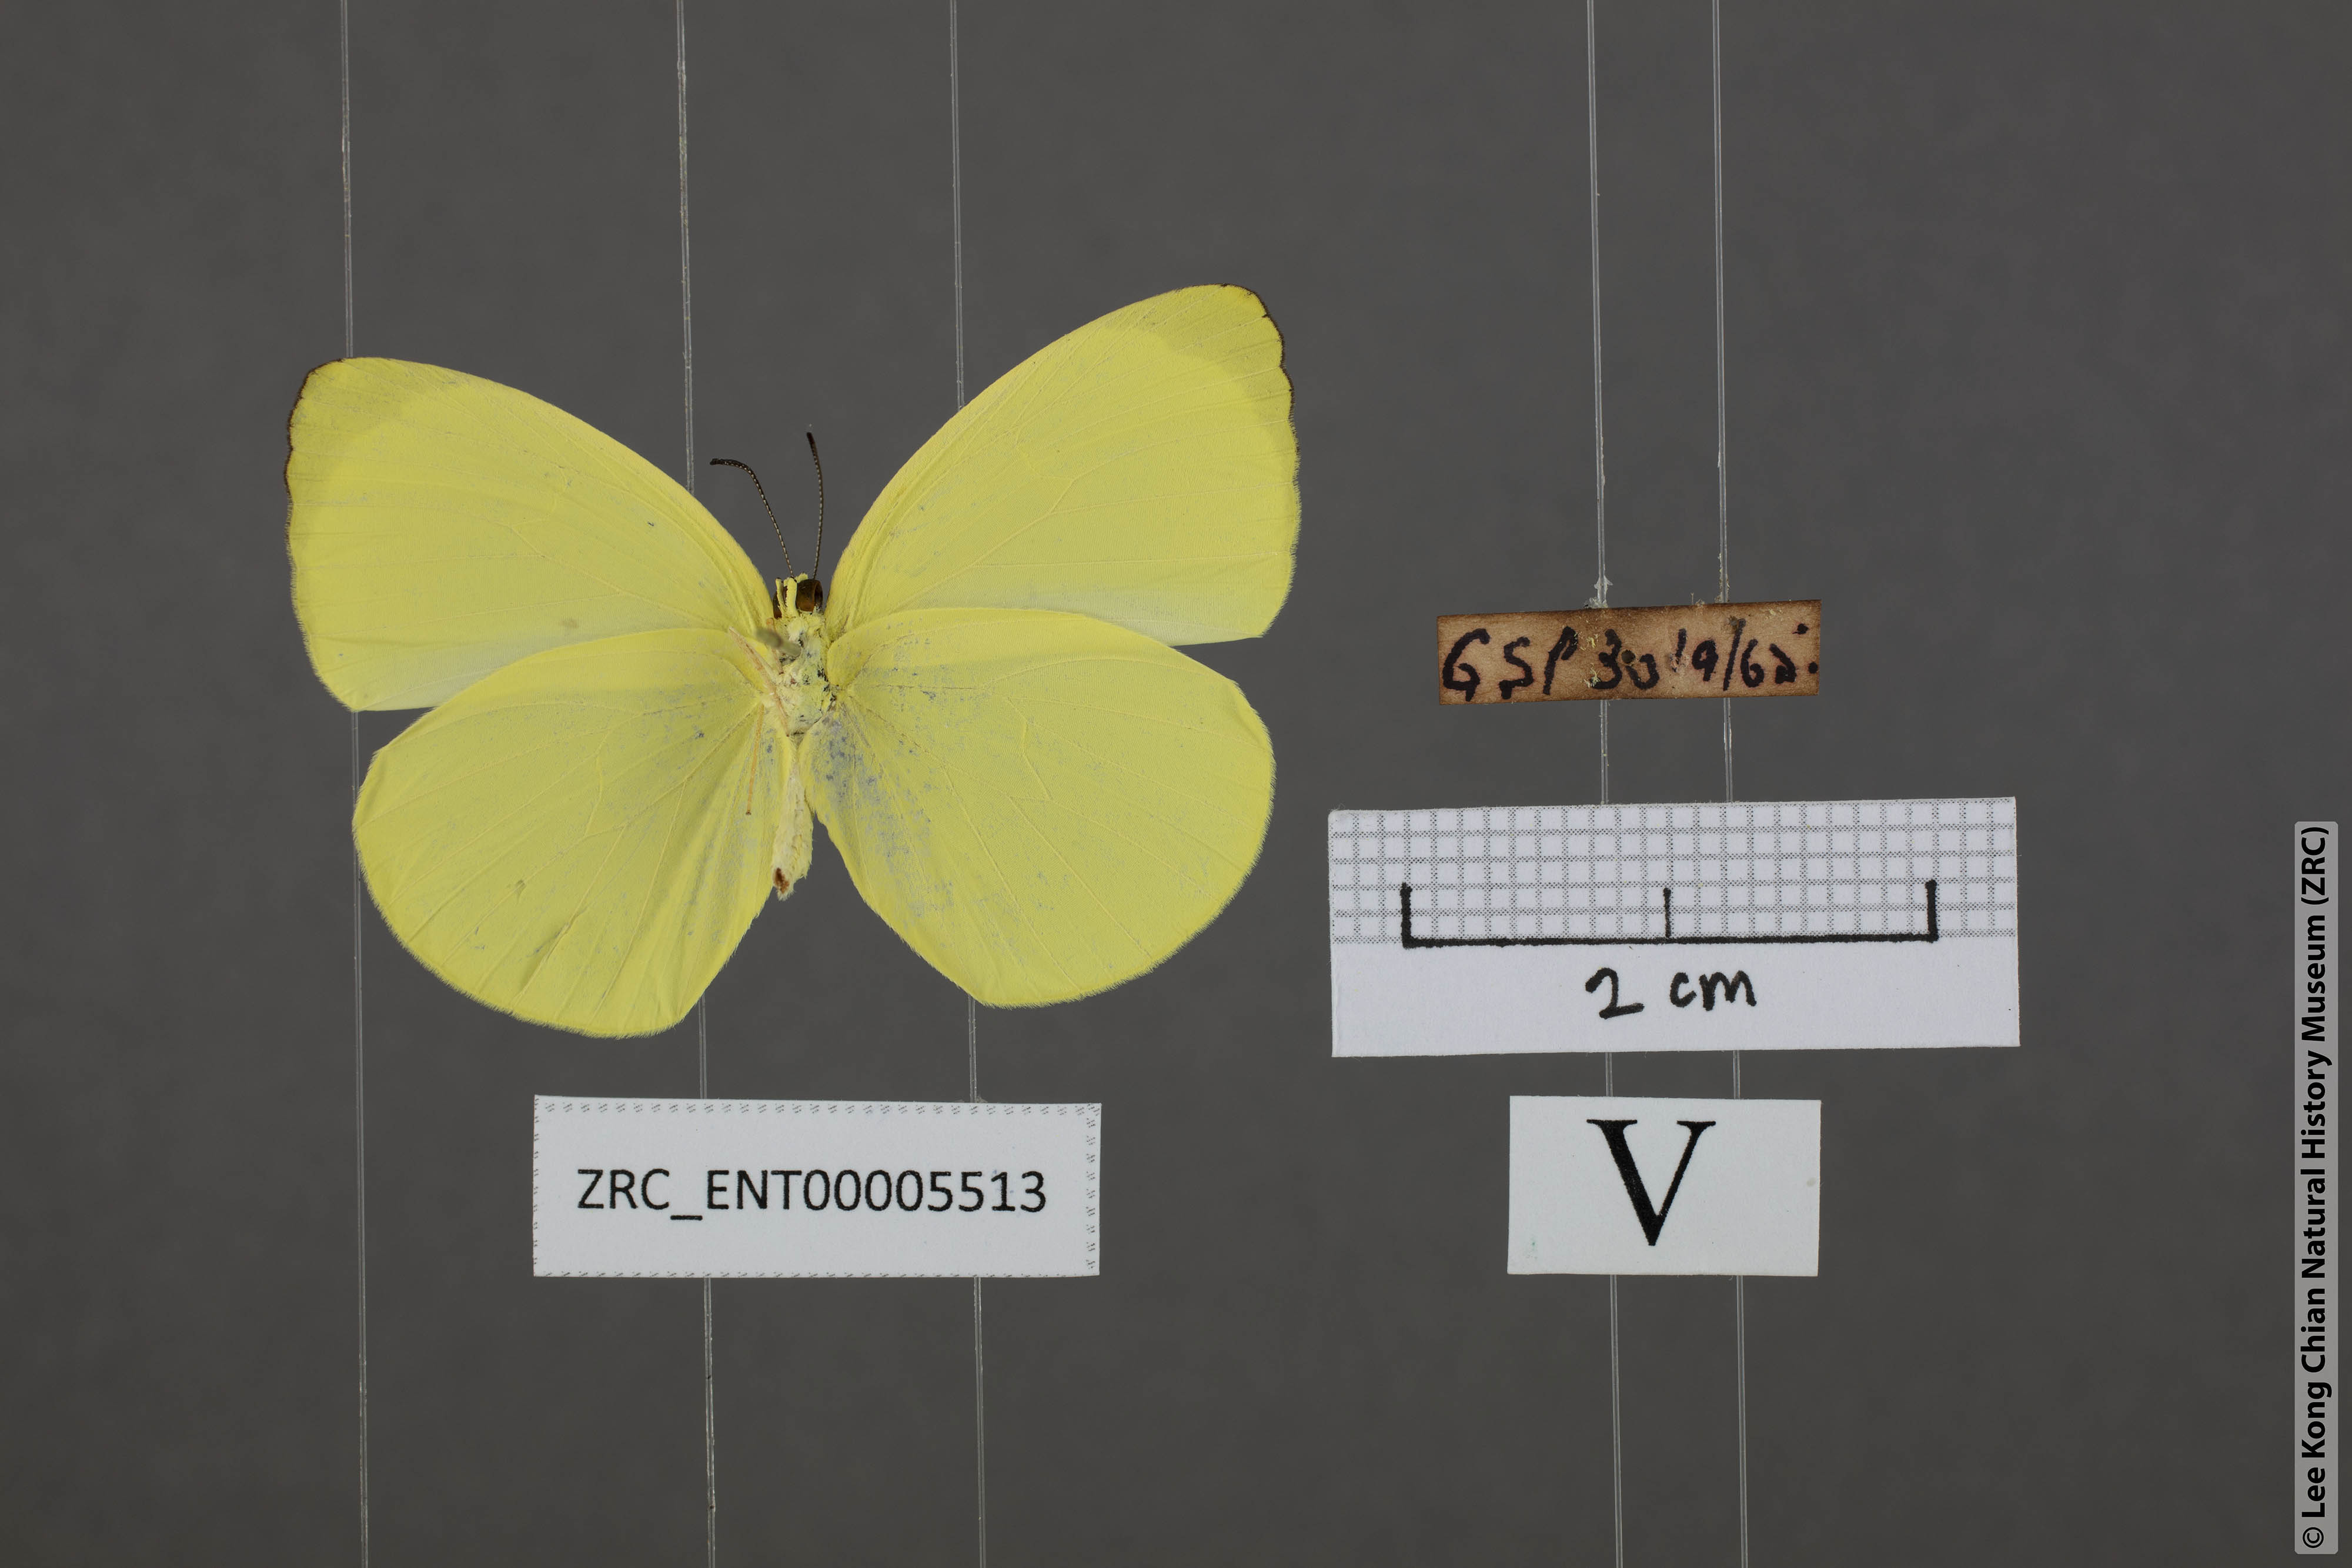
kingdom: Animalia
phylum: Arthropoda
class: Insecta
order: Lepidoptera
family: Pieridae
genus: Gandaca
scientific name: Gandaca harina
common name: Tree yellow
